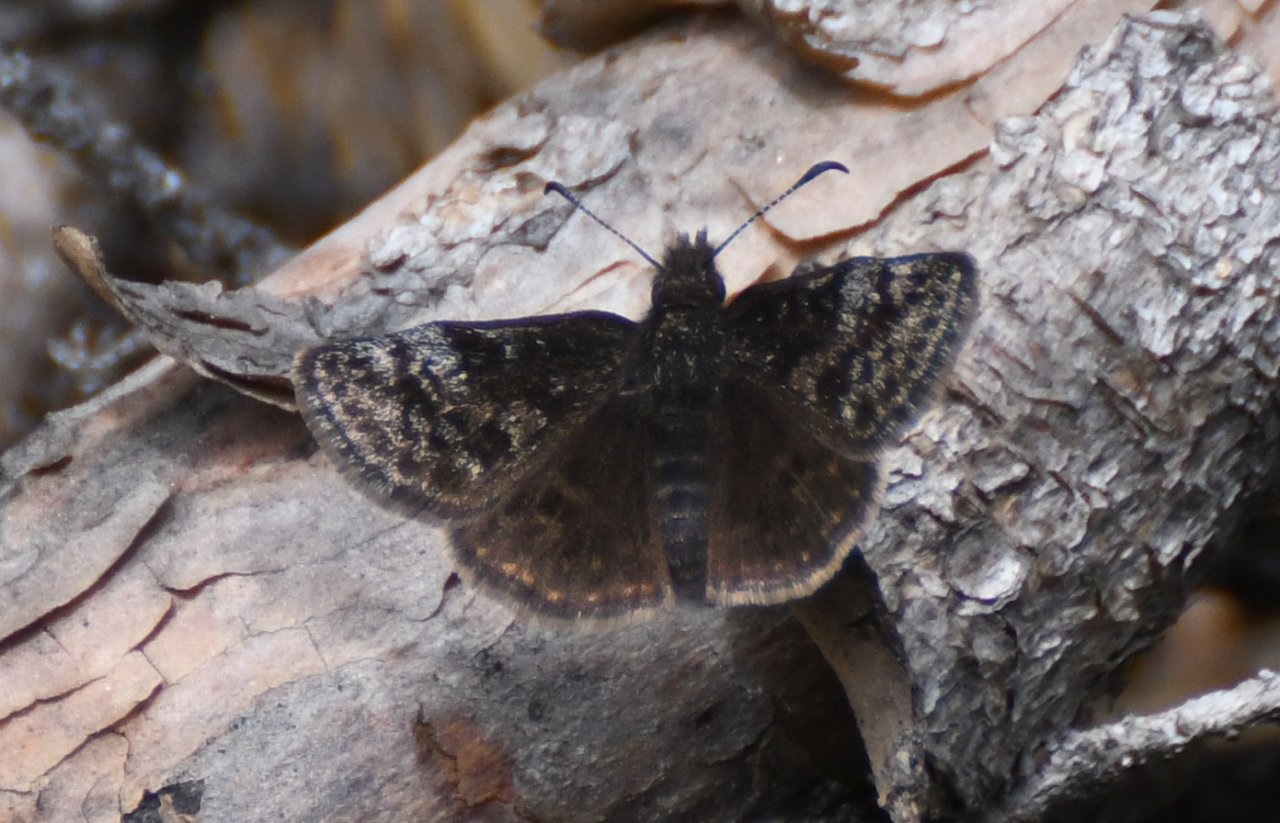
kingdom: Animalia
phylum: Arthropoda
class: Insecta
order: Lepidoptera
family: Hesperiidae
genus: Erynnis
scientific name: Erynnis icelus
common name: Dreamy Duskywing
